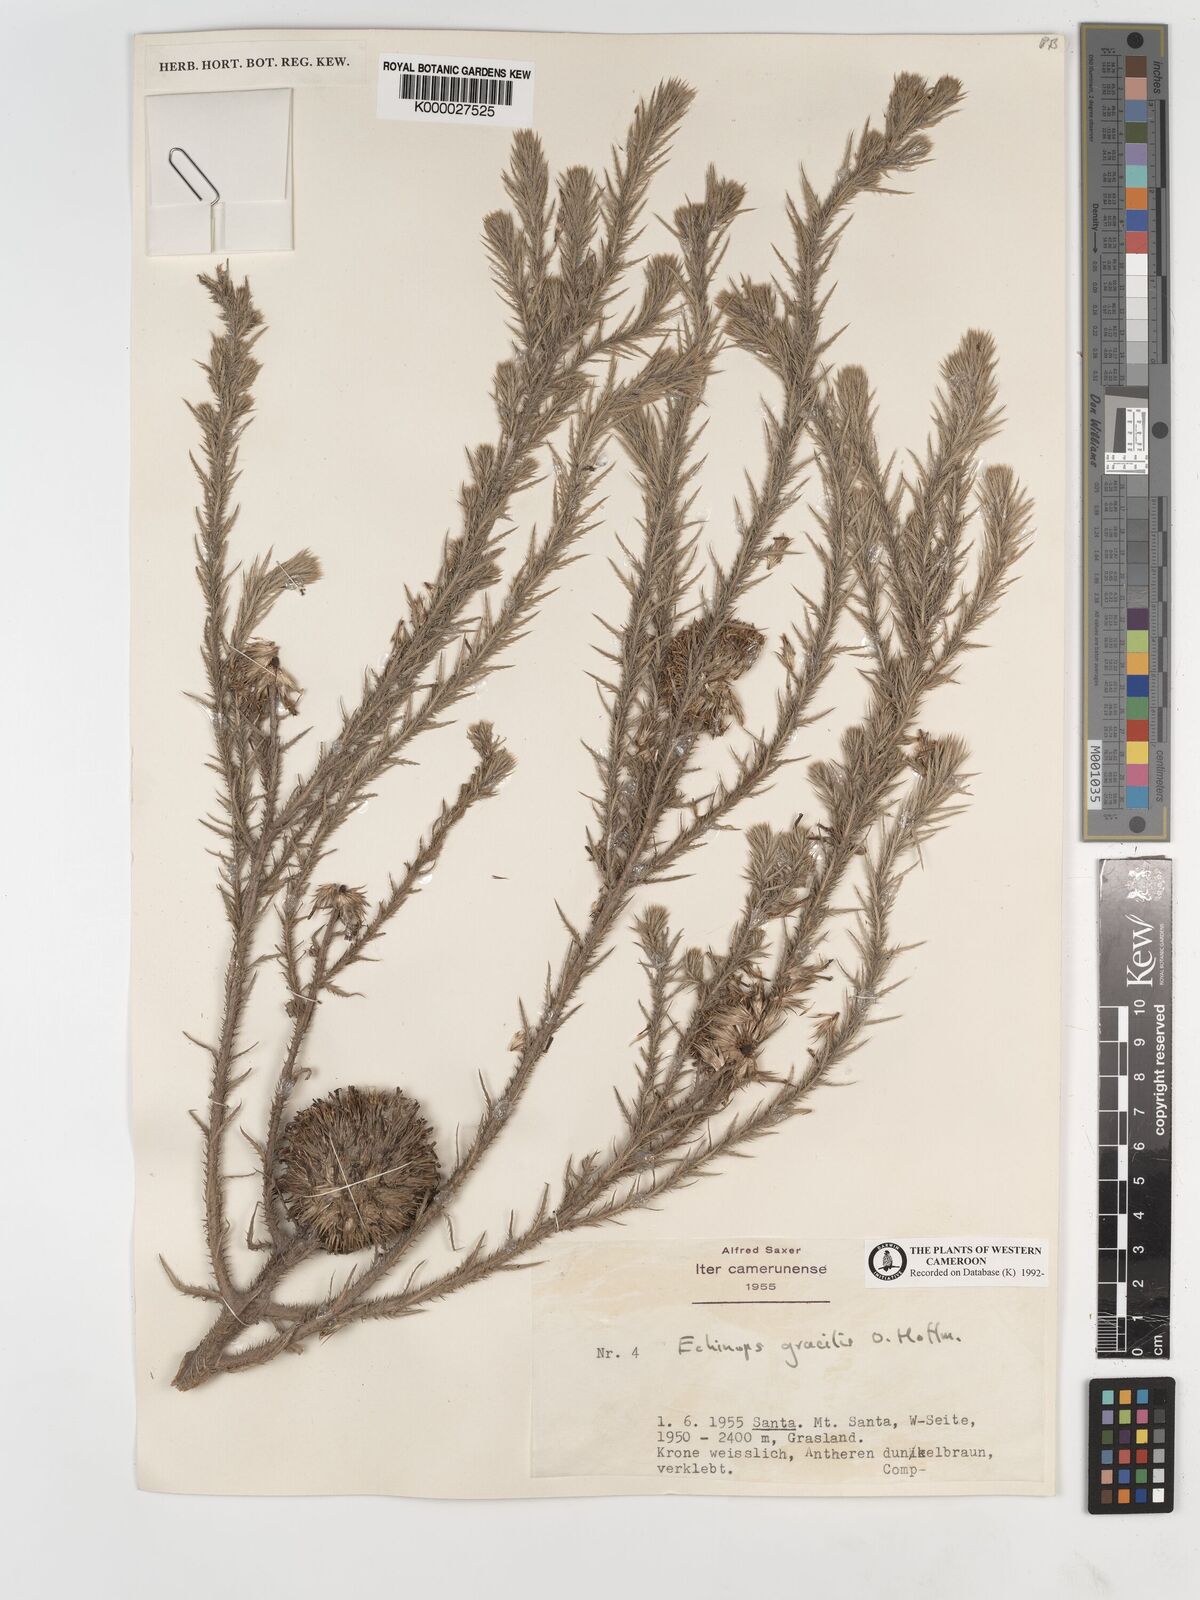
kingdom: Plantae
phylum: Tracheophyta
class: Magnoliopsida
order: Asterales
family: Asteraceae
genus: Echinops
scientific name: Echinops gracilis
